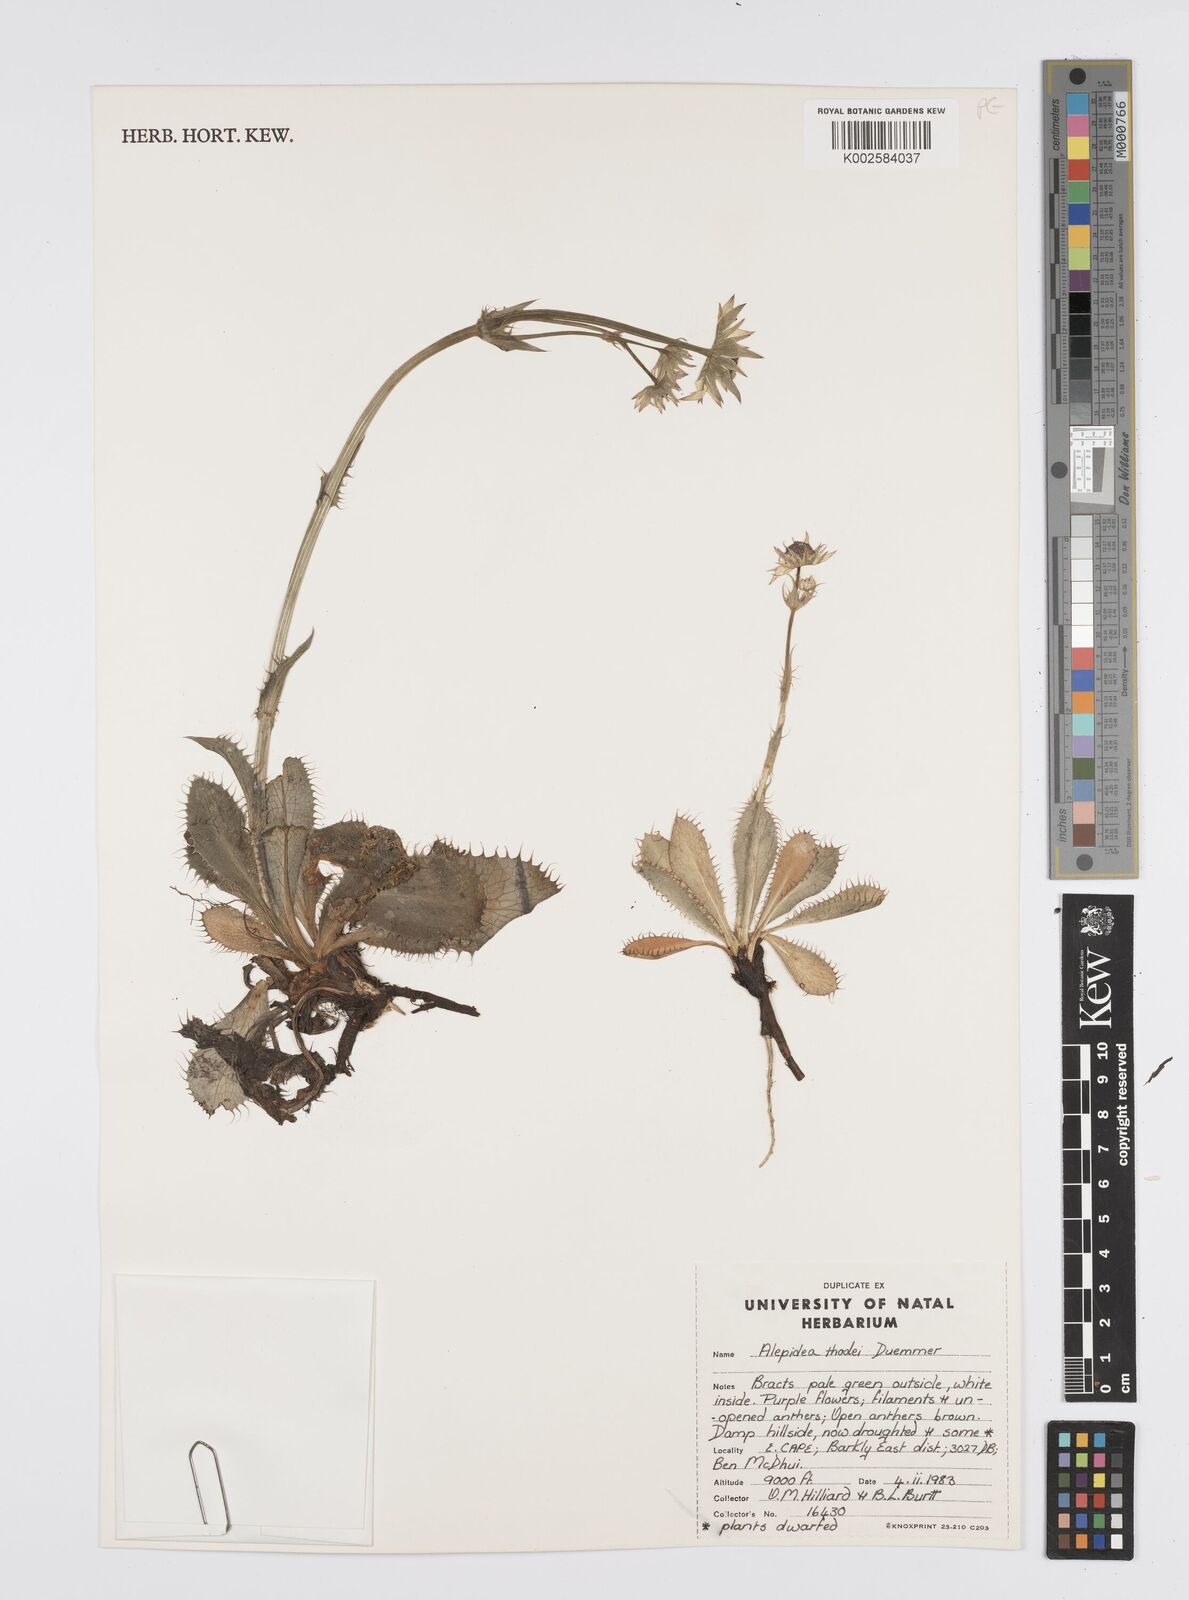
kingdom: Plantae
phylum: Tracheophyta
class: Magnoliopsida
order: Apiales
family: Apiaceae
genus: Alepidea
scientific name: Alepidea thodei
